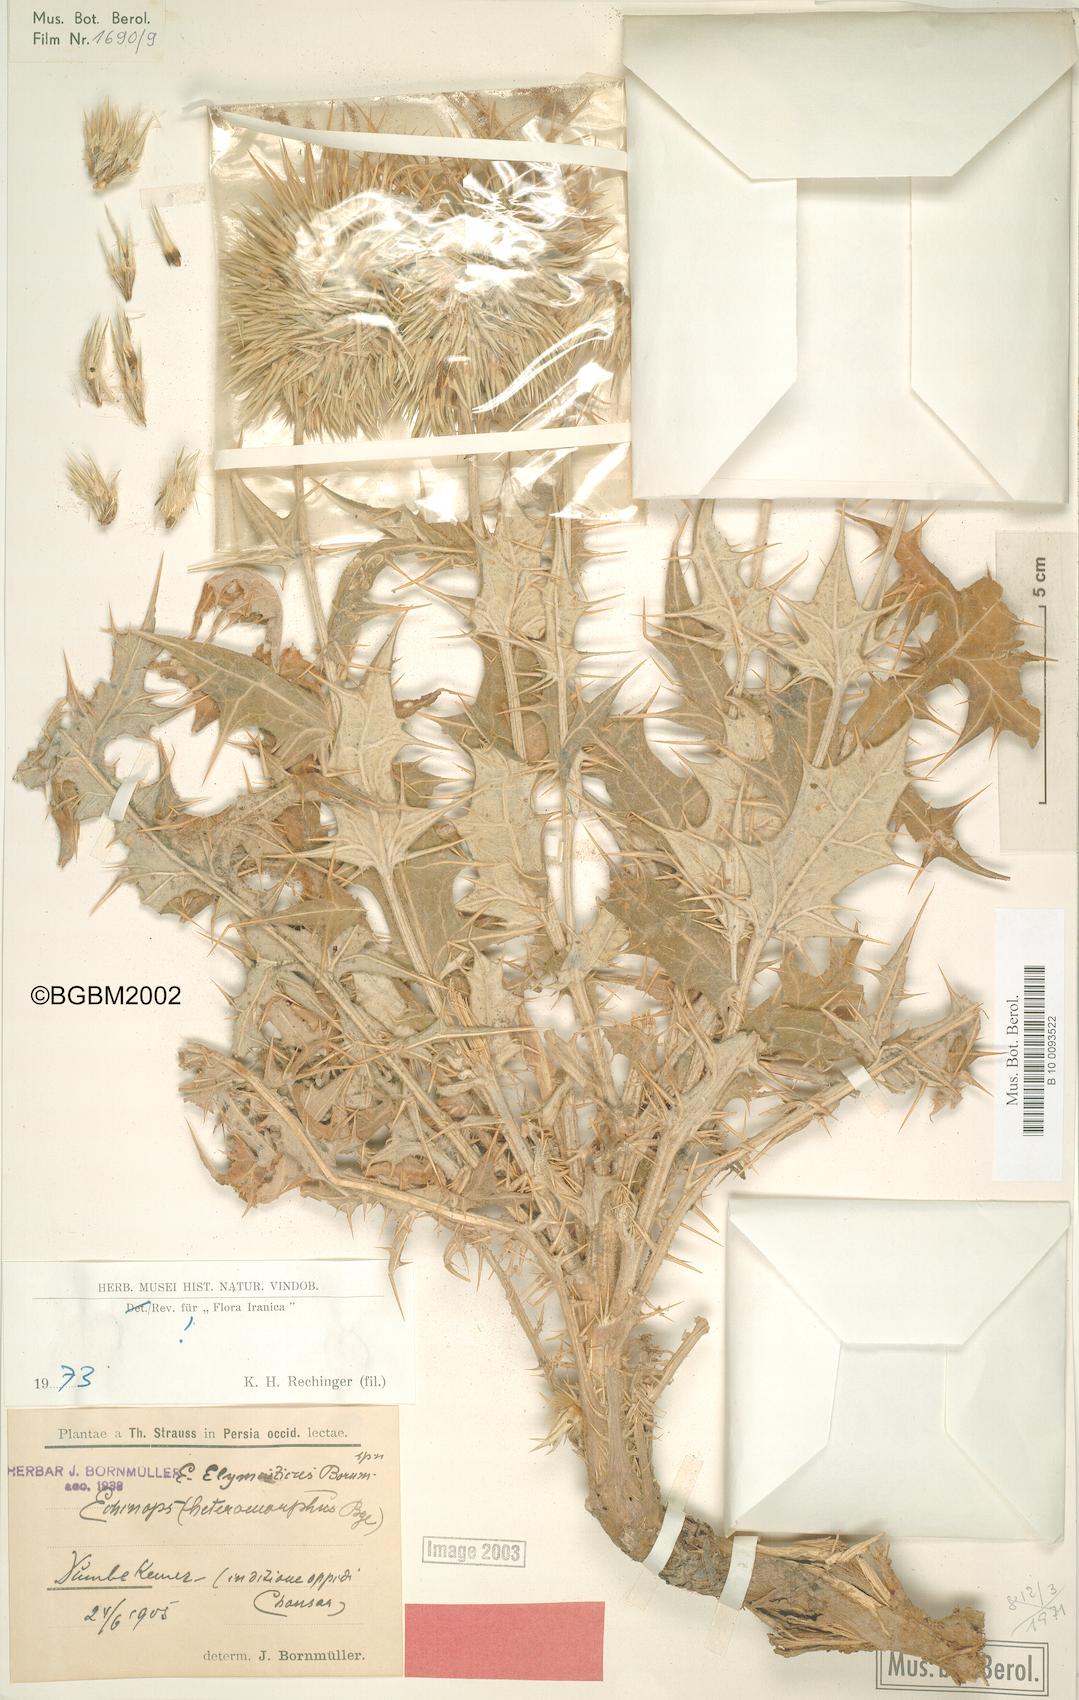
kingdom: Plantae
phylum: Tracheophyta
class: Magnoliopsida
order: Asterales
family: Asteraceae
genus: Echinops
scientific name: Echinops elymaiticus
